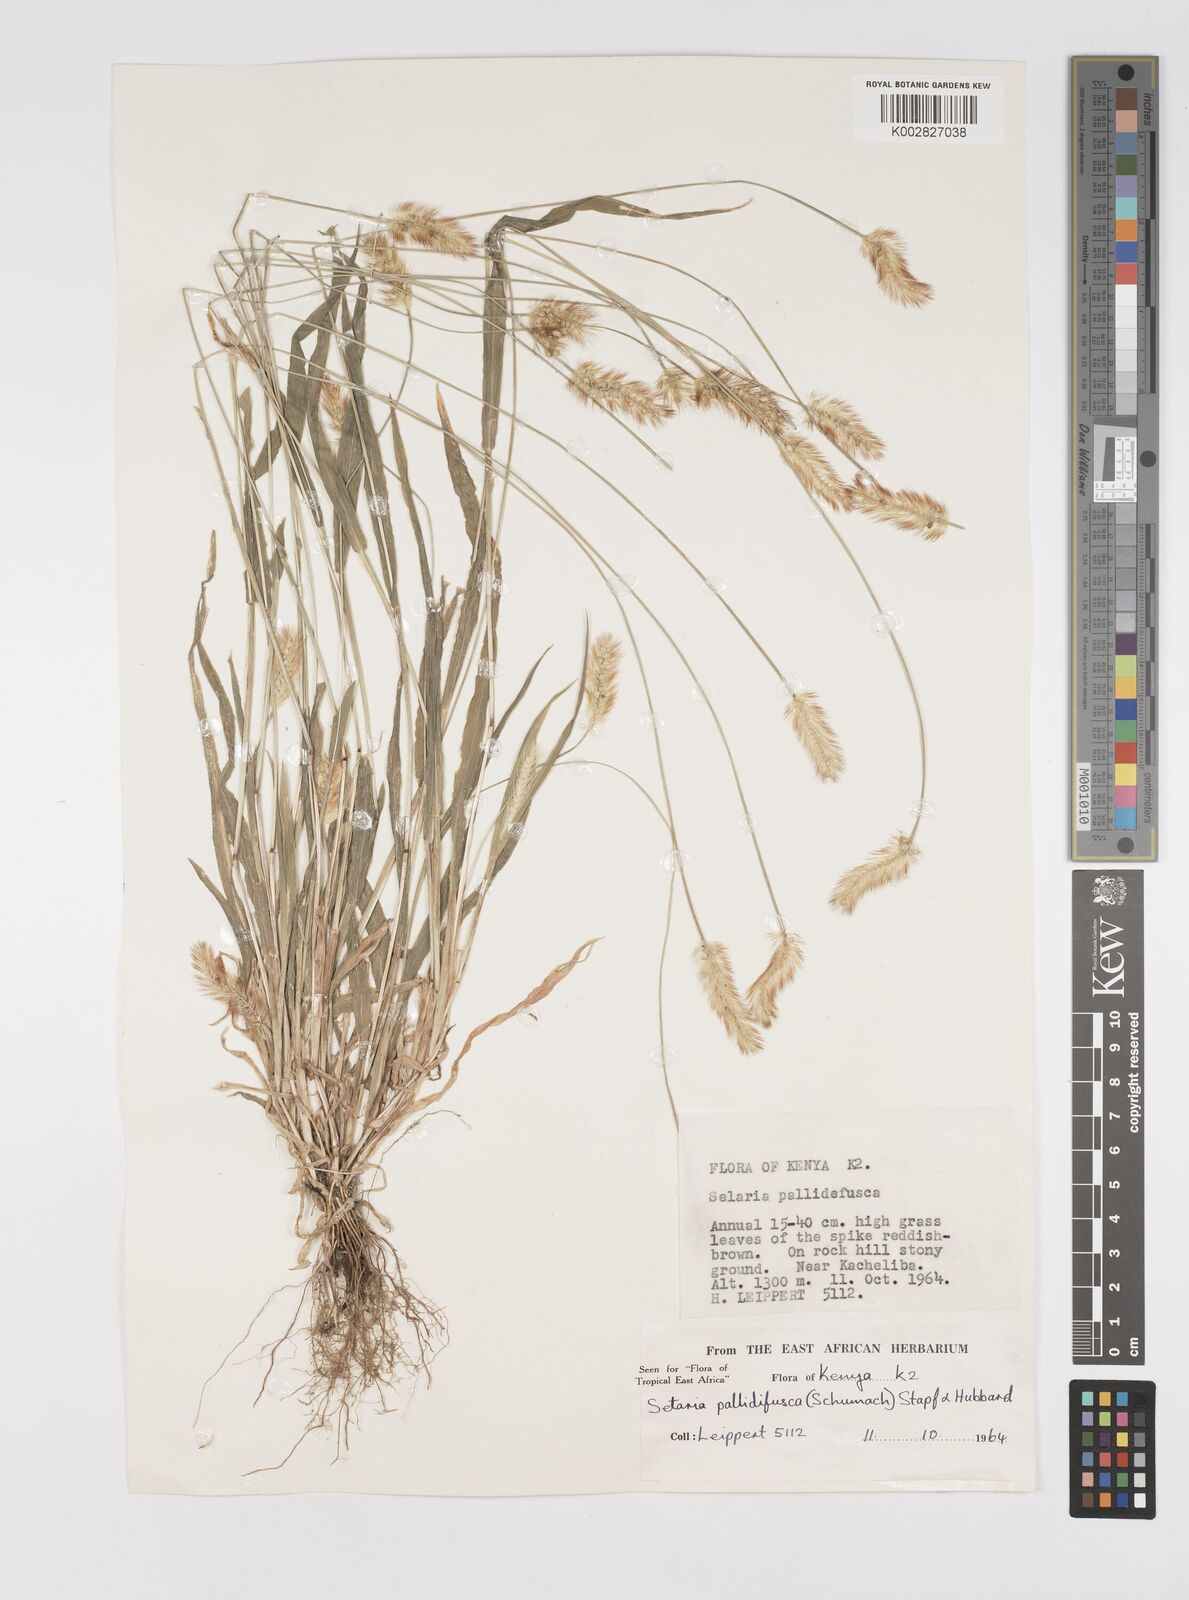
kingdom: Plantae
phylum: Tracheophyta
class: Liliopsida
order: Poales
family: Poaceae
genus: Setaria
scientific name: Setaria pumila
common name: Yellow bristle-grass
